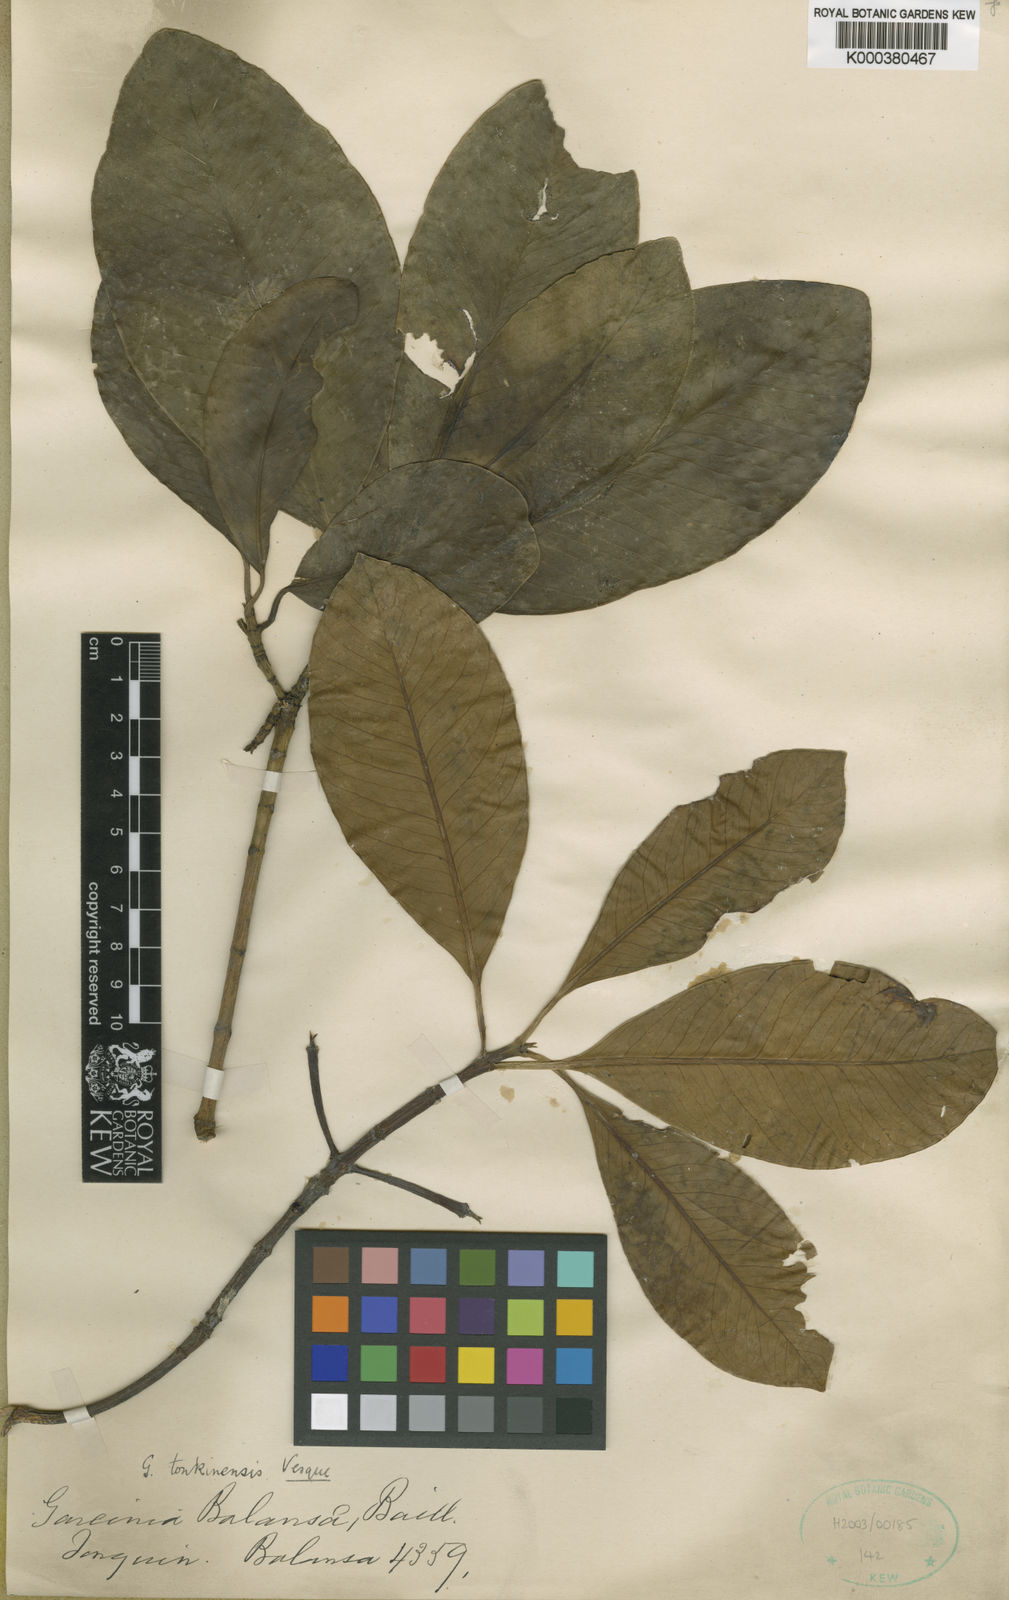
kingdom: Plantae
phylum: Tracheophyta
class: Magnoliopsida
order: Malpighiales
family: Clusiaceae
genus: Garcinia
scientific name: Garcinia tonkinensis
